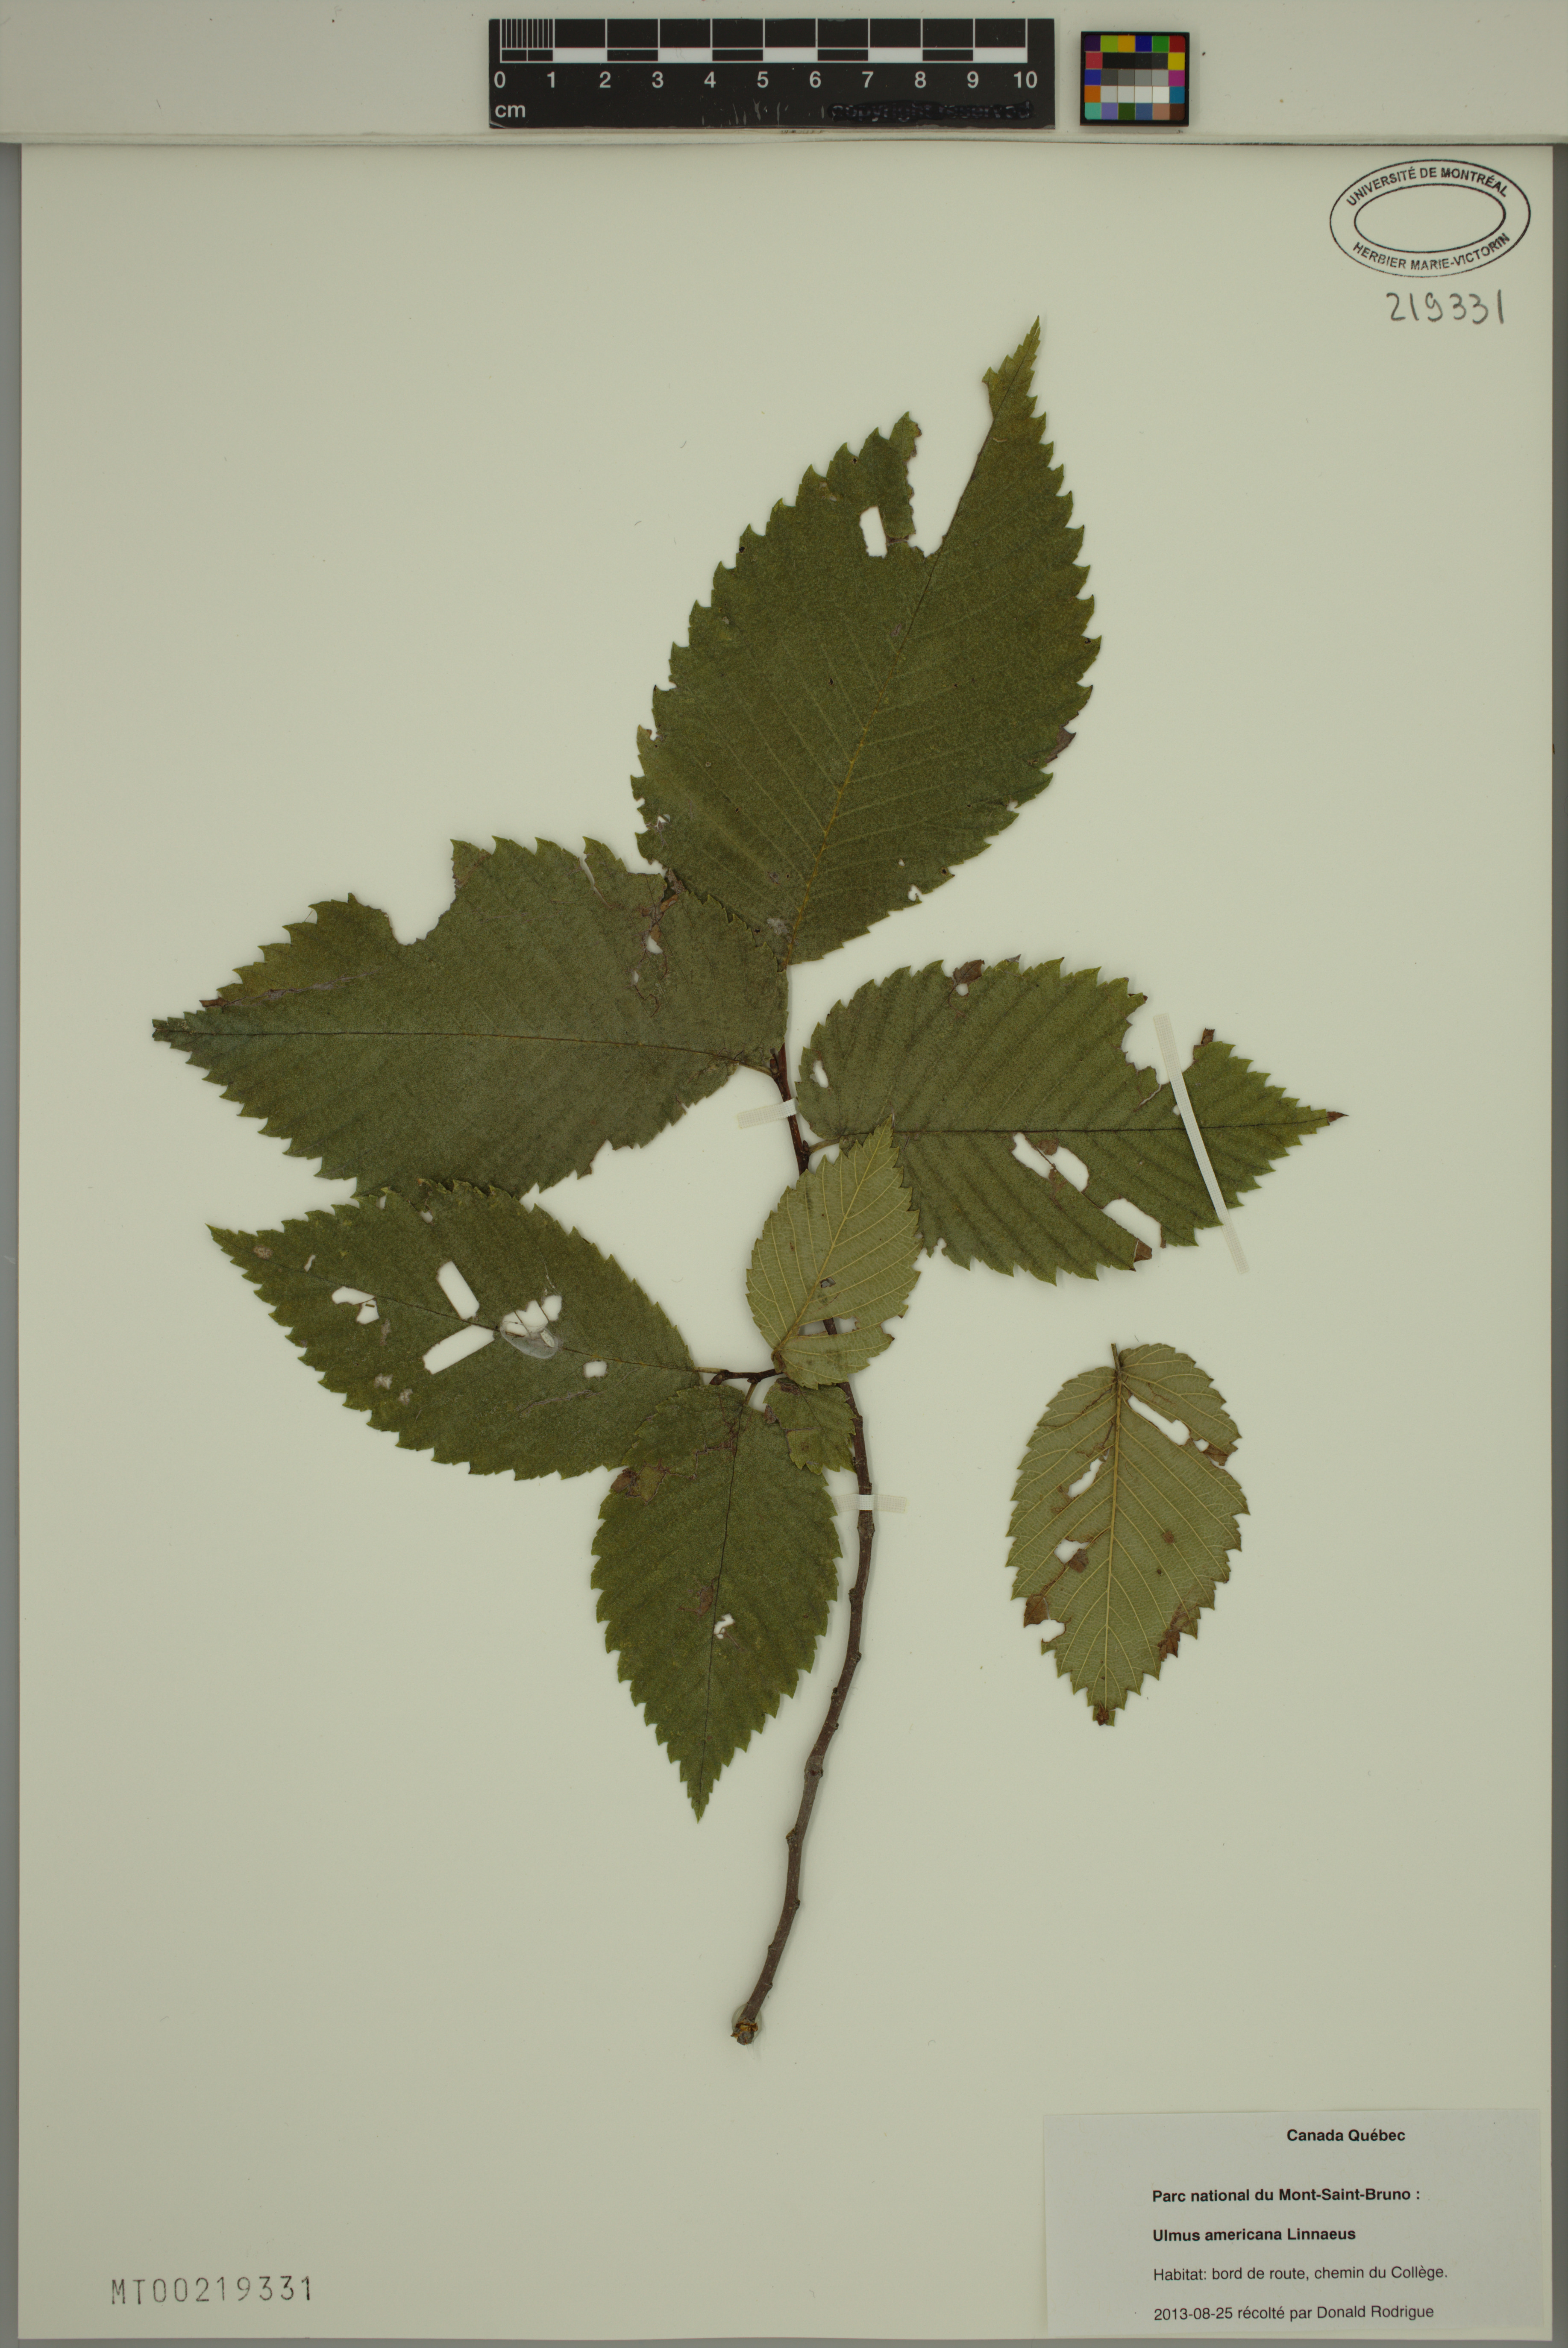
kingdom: Plantae
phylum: Tracheophyta
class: Magnoliopsida
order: Rosales
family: Ulmaceae
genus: Ulmus
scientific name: Ulmus americana
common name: American elm
